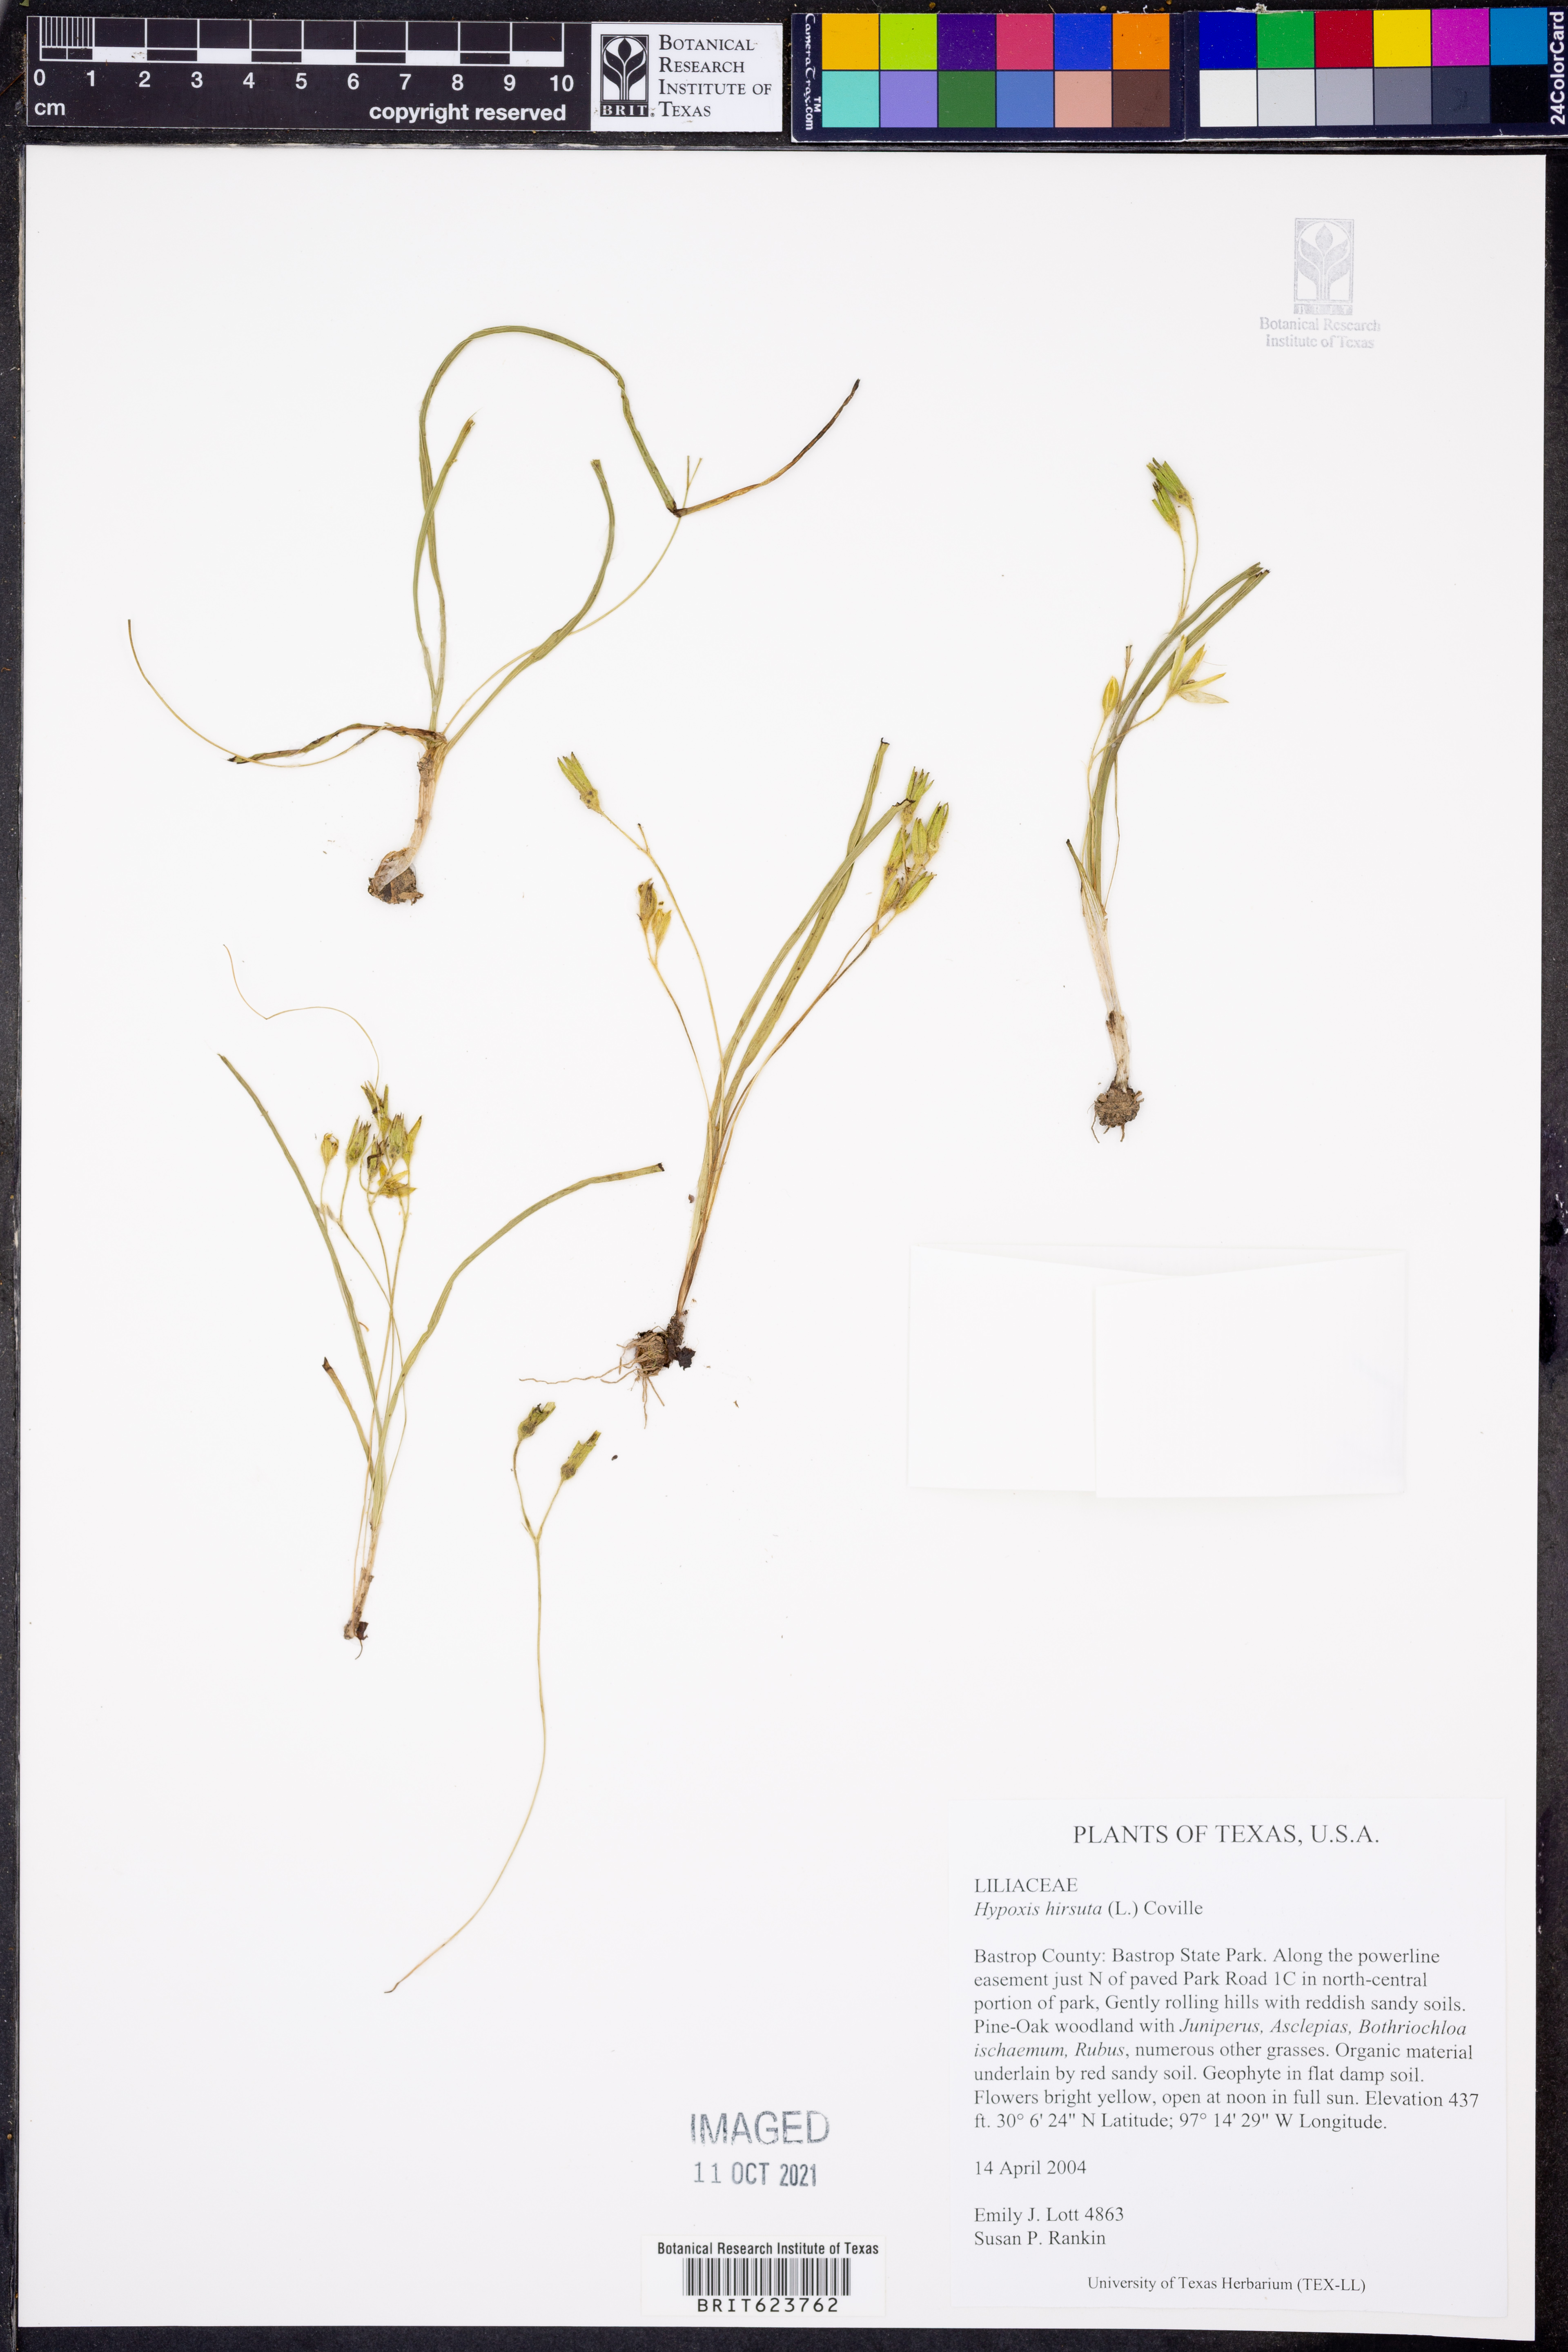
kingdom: Plantae
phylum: Tracheophyta
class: Liliopsida
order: Asparagales
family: Hypoxidaceae
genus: Hypoxis
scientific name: Hypoxis hirsuta
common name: Common goldstar
